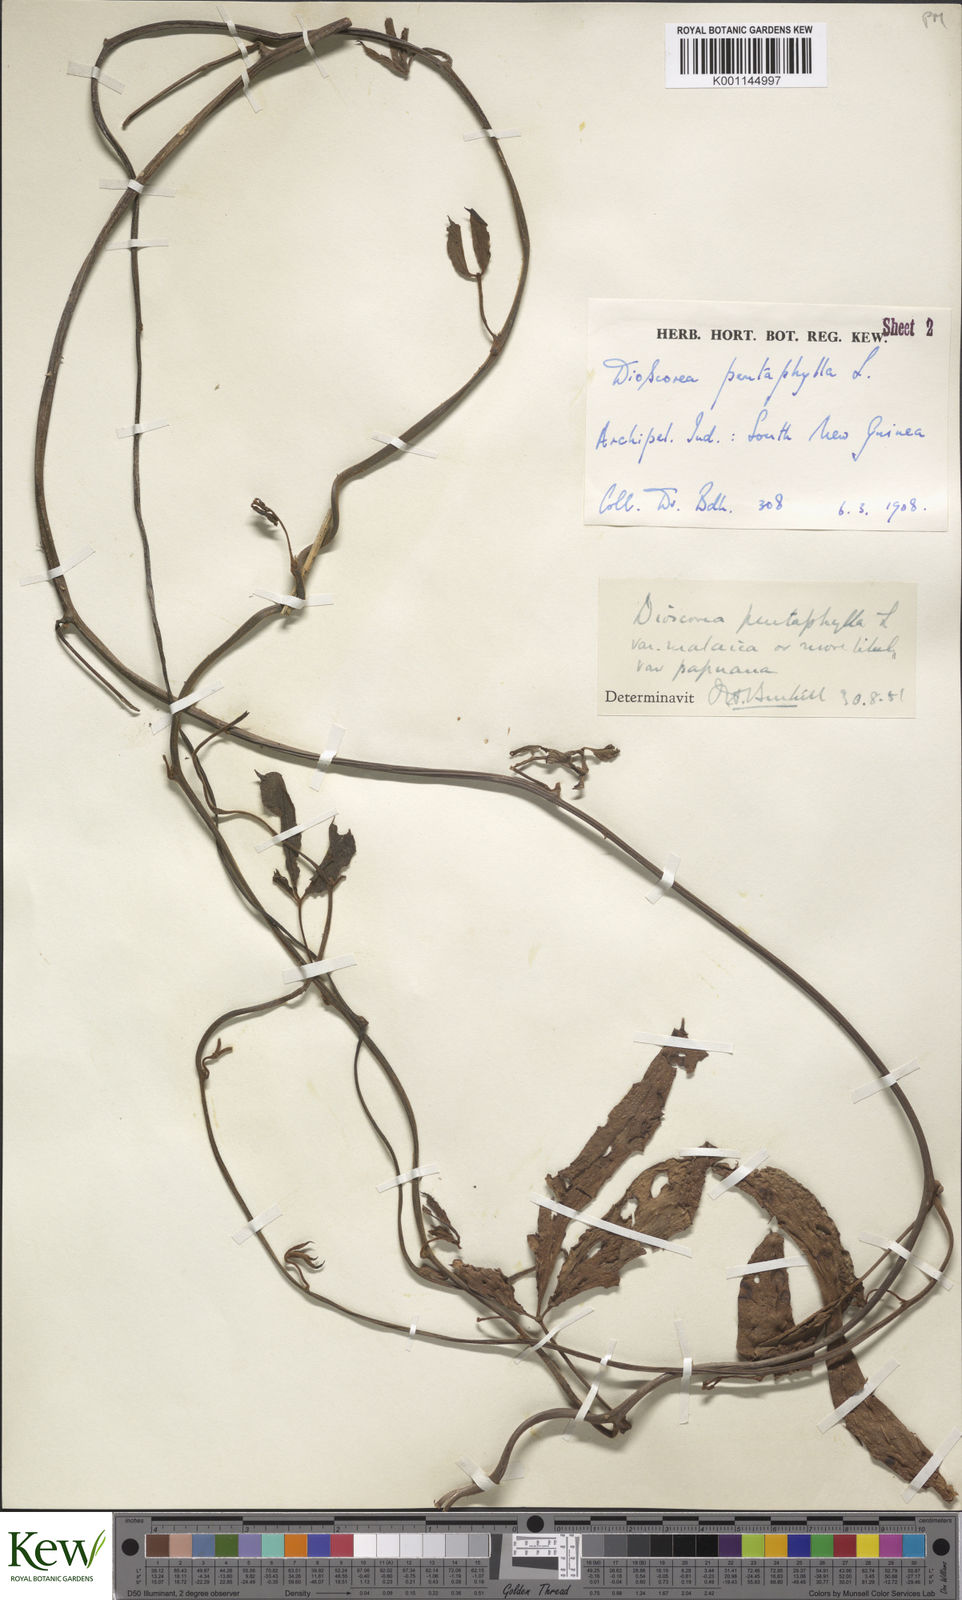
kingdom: Plantae
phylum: Tracheophyta
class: Liliopsida
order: Dioscoreales
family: Dioscoreaceae
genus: Dioscorea
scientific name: Dioscorea pentaphylla
